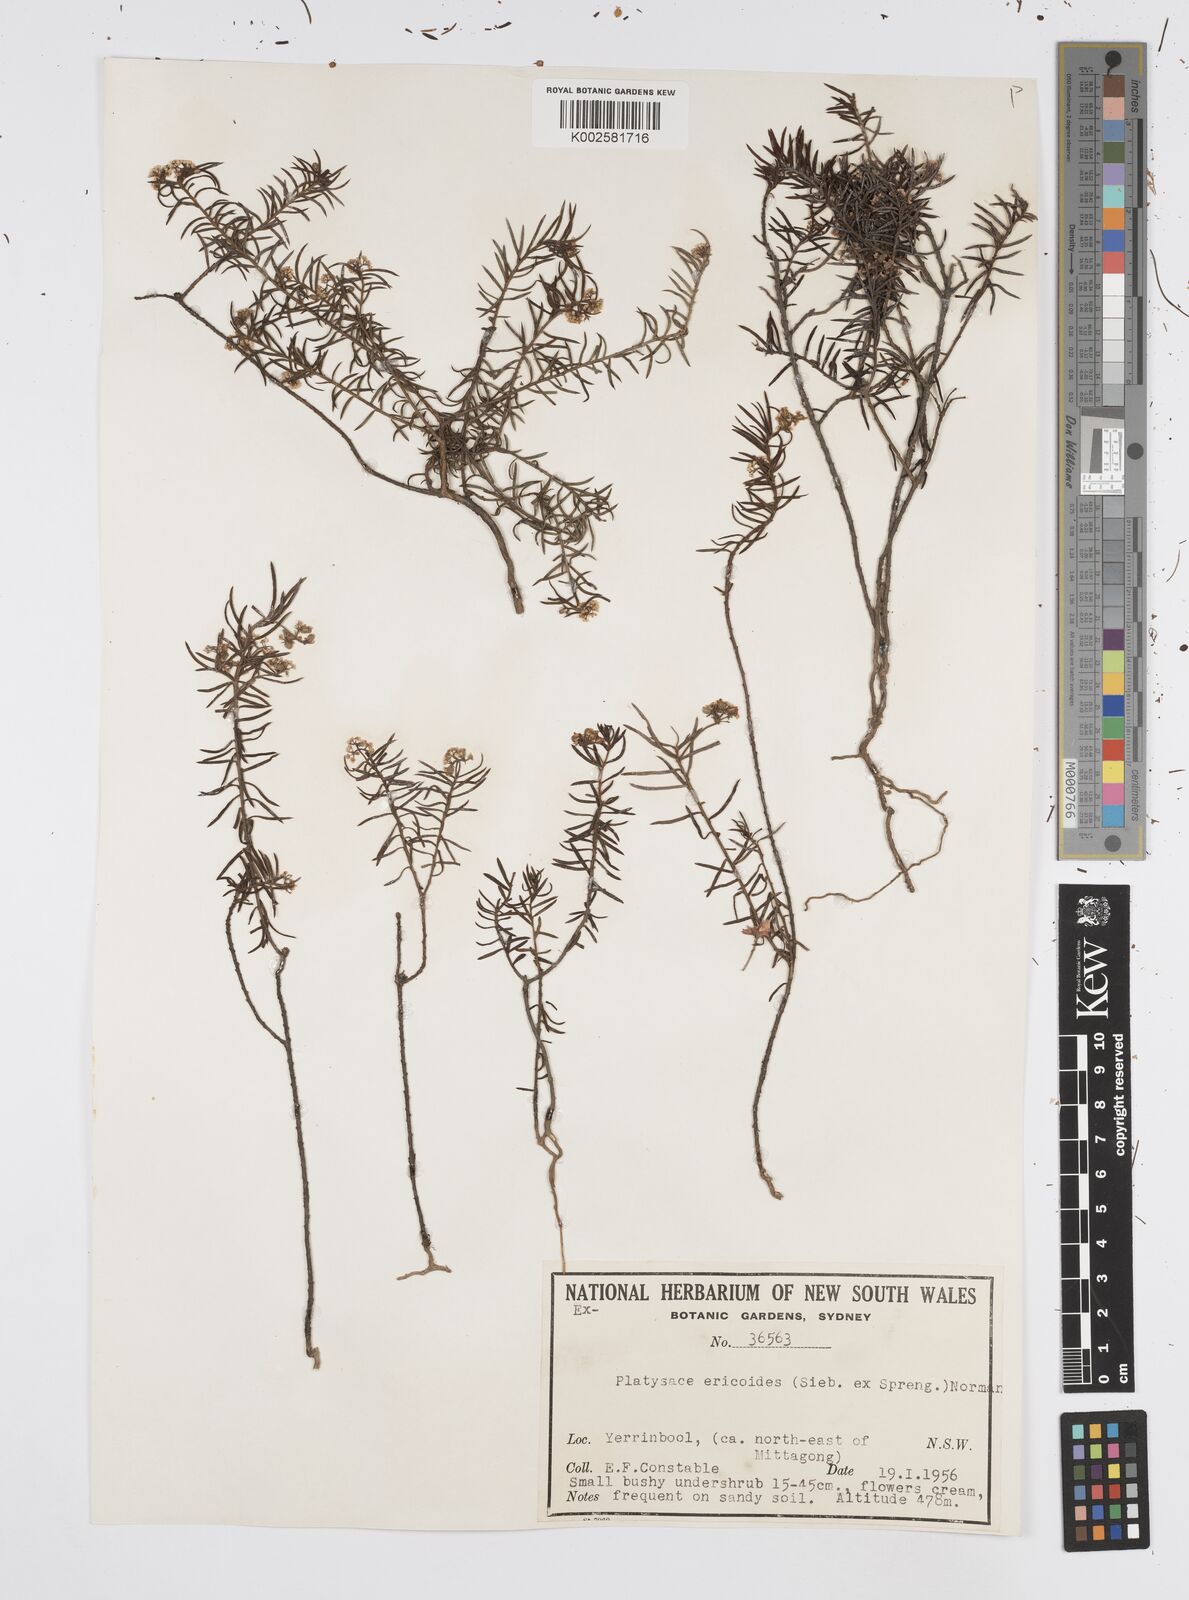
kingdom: Plantae
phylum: Tracheophyta
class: Magnoliopsida
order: Apiales
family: Apiaceae
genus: Platysace
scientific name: Platysace ericoides
